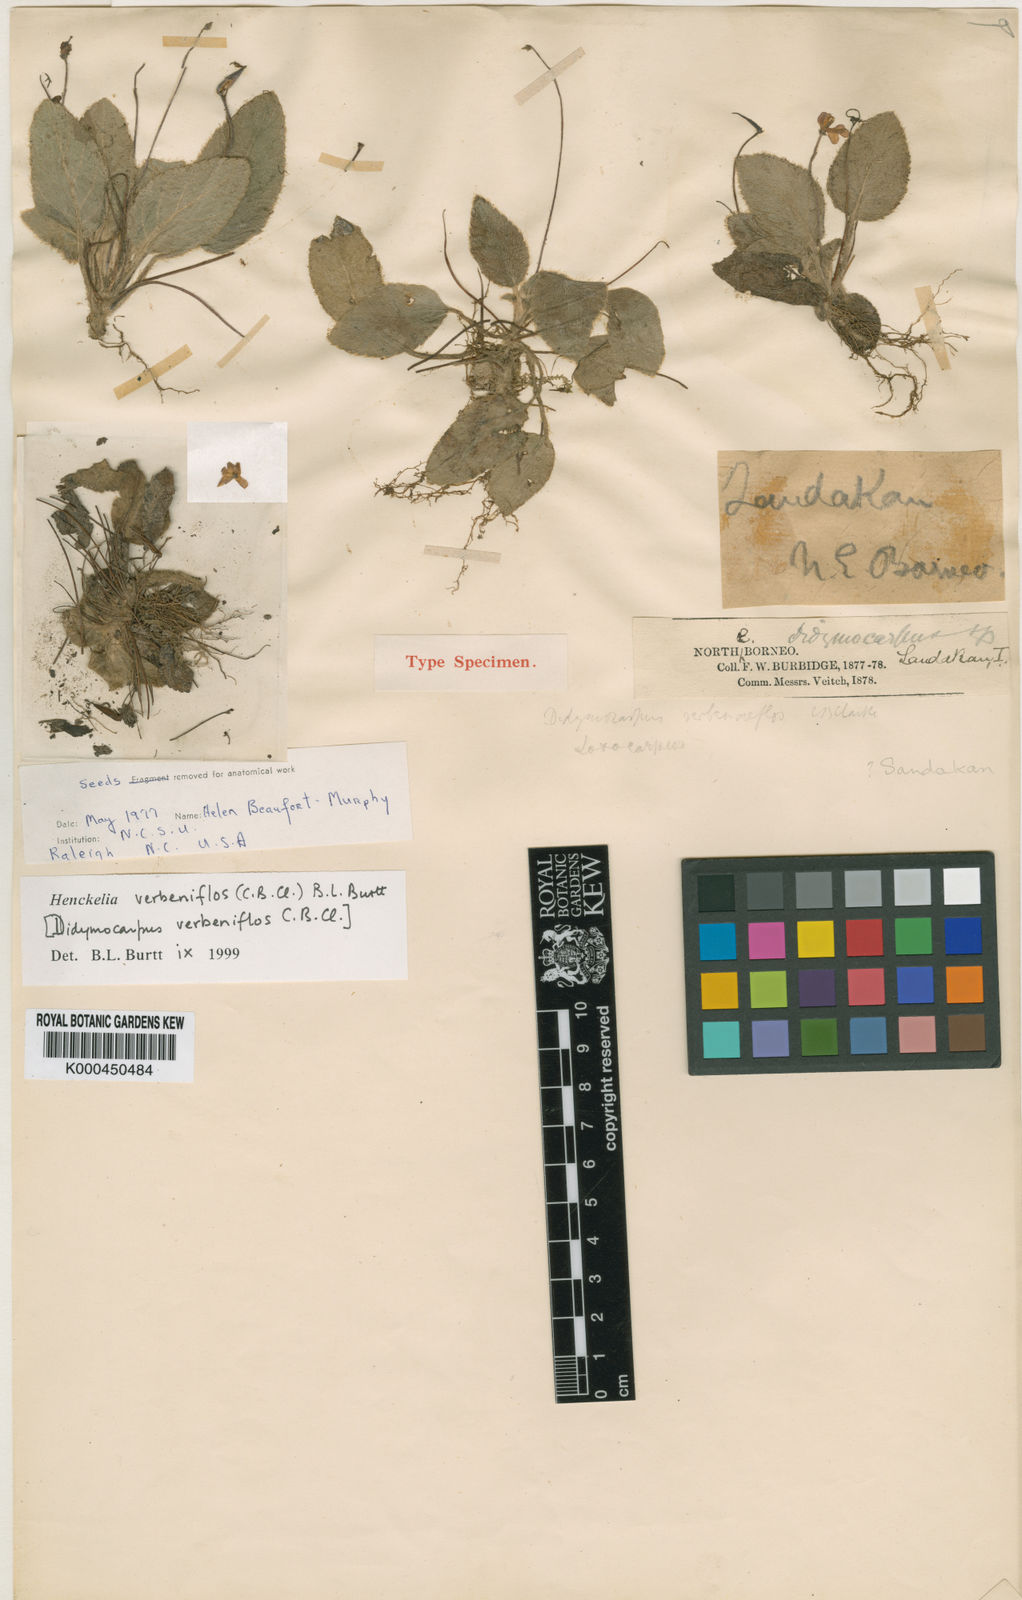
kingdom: Plantae
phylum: Tracheophyta
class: Magnoliopsida
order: Lamiales
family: Gesneriaceae
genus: Loxocarpus
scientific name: Loxocarpus verbeniflos
